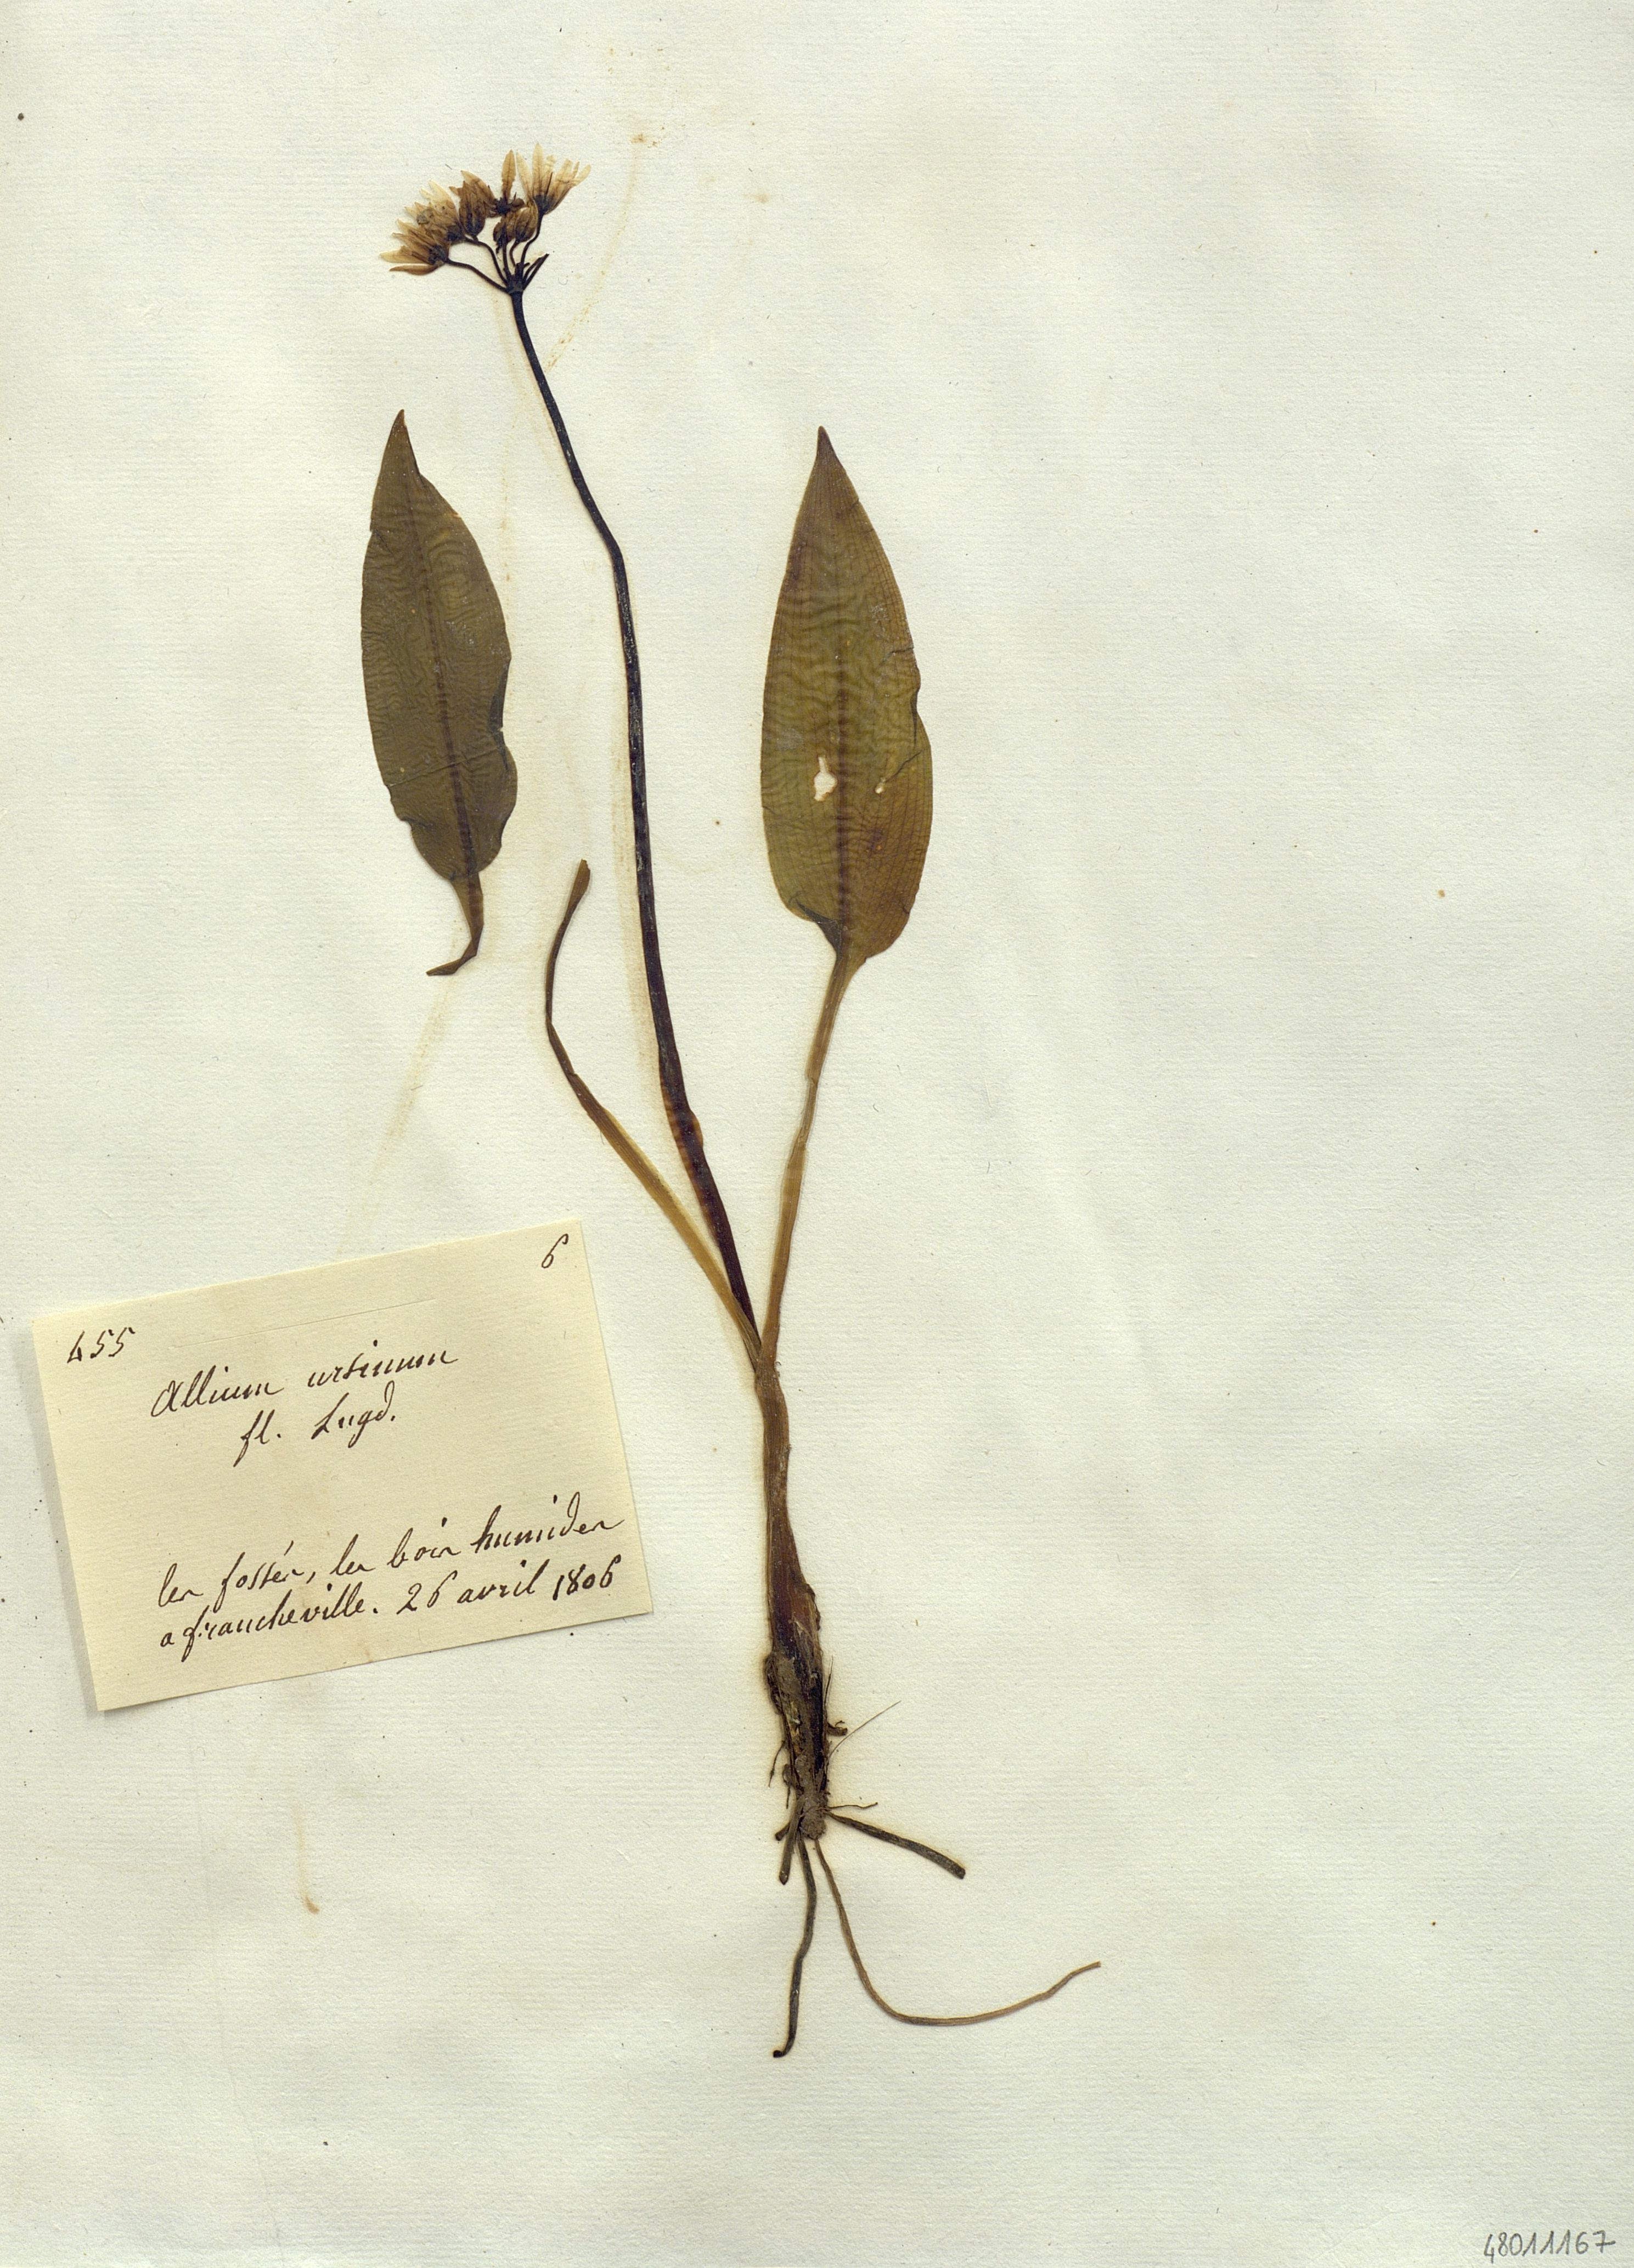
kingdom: Plantae
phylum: Tracheophyta
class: Liliopsida
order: Liliales
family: Liliaceae
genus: Allium
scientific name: Allium
